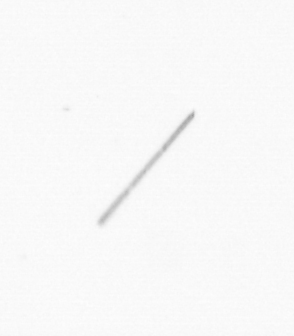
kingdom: Chromista
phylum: Ochrophyta
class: Bacillariophyceae
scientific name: Bacillariophyceae
